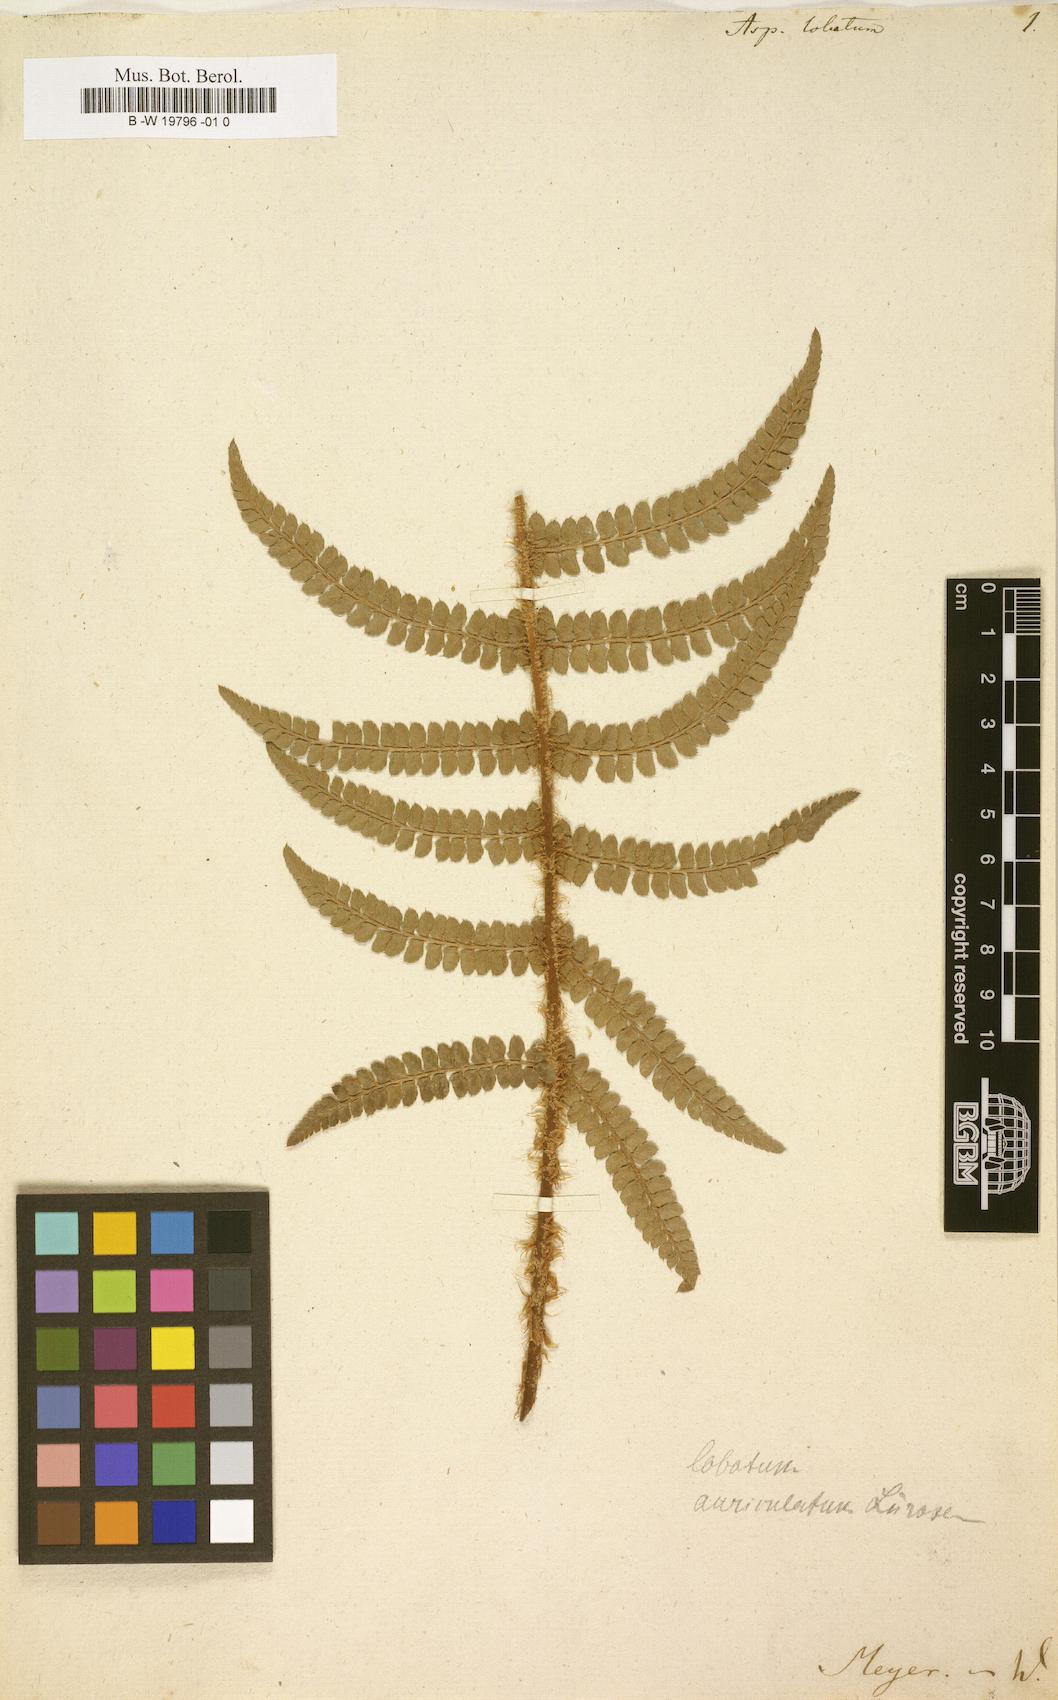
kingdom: Plantae
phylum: Tracheophyta
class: Polypodiopsida
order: Polypodiales
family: Dryopteridaceae
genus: Polystichum
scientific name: Polystichum aculeatum
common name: Hard shield-fern
